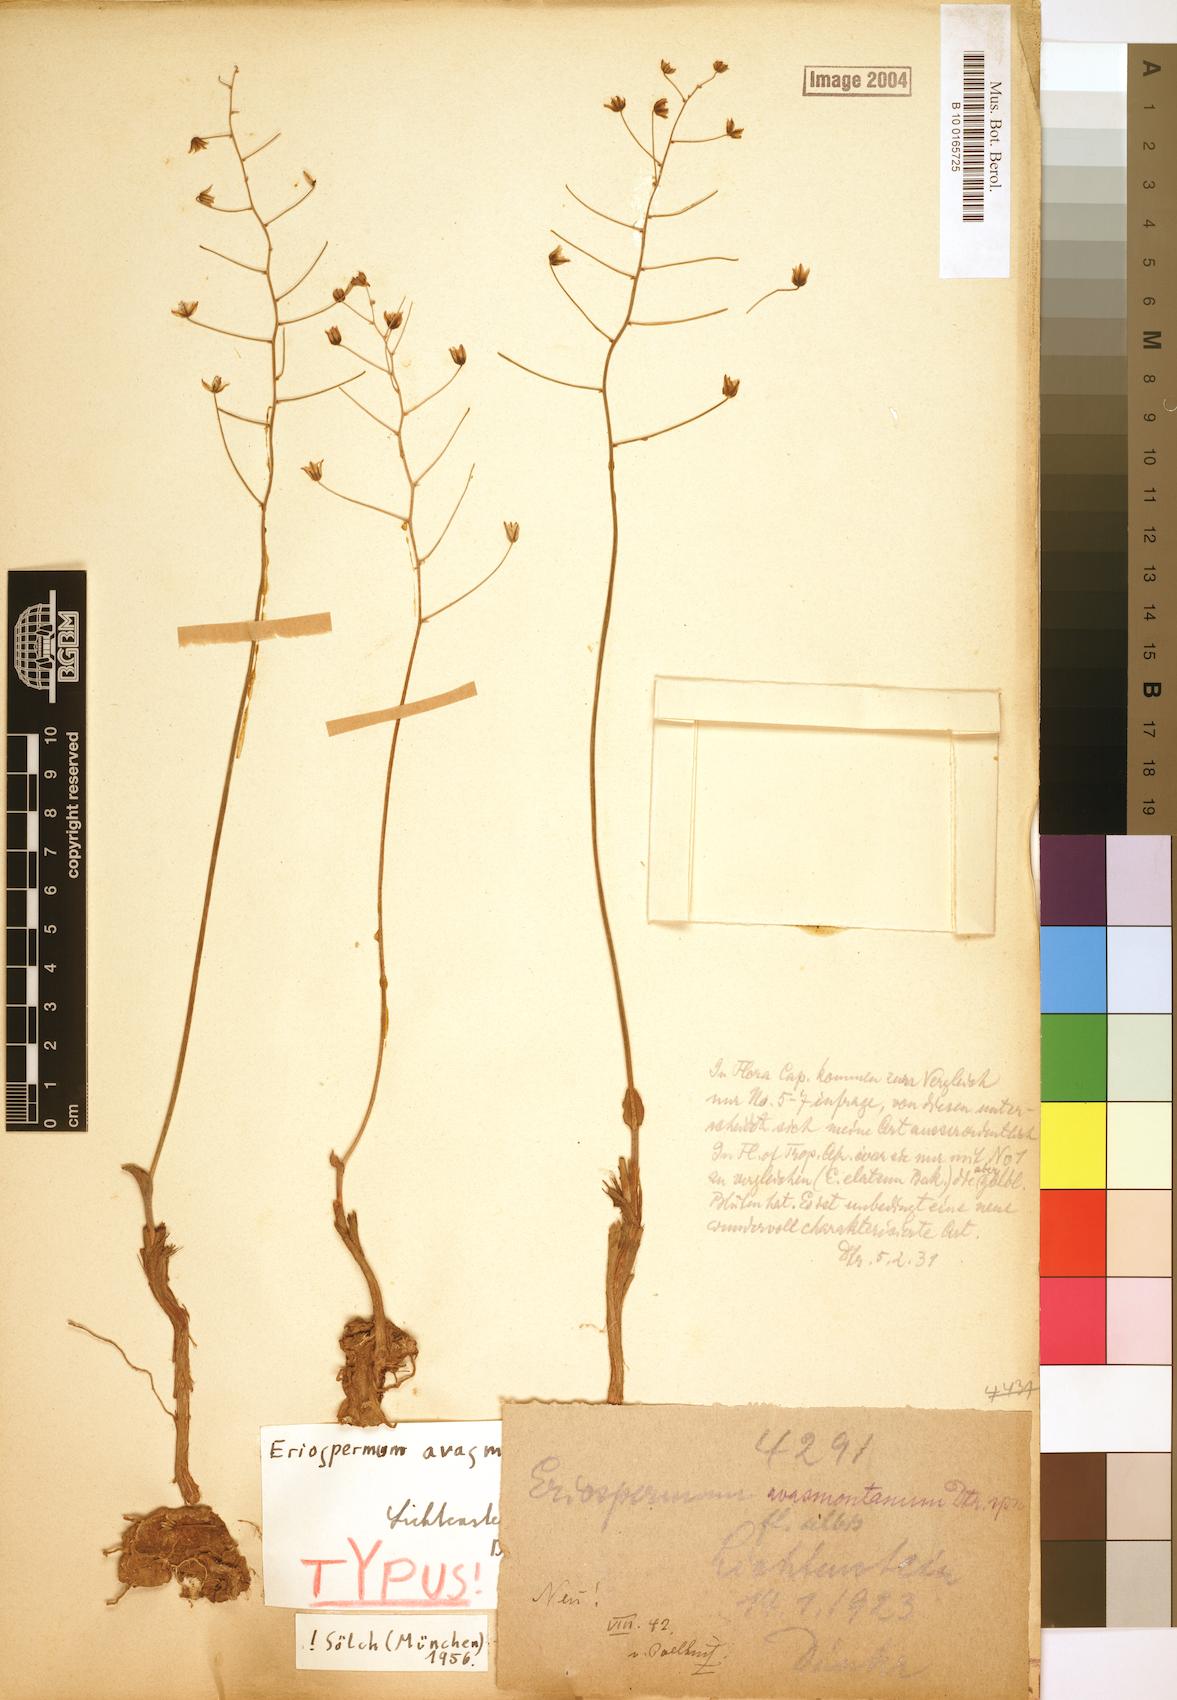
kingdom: Plantae
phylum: Tracheophyta
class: Liliopsida
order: Asparagales
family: Asparagaceae
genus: Eriospermum
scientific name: Eriospermum schinzii
